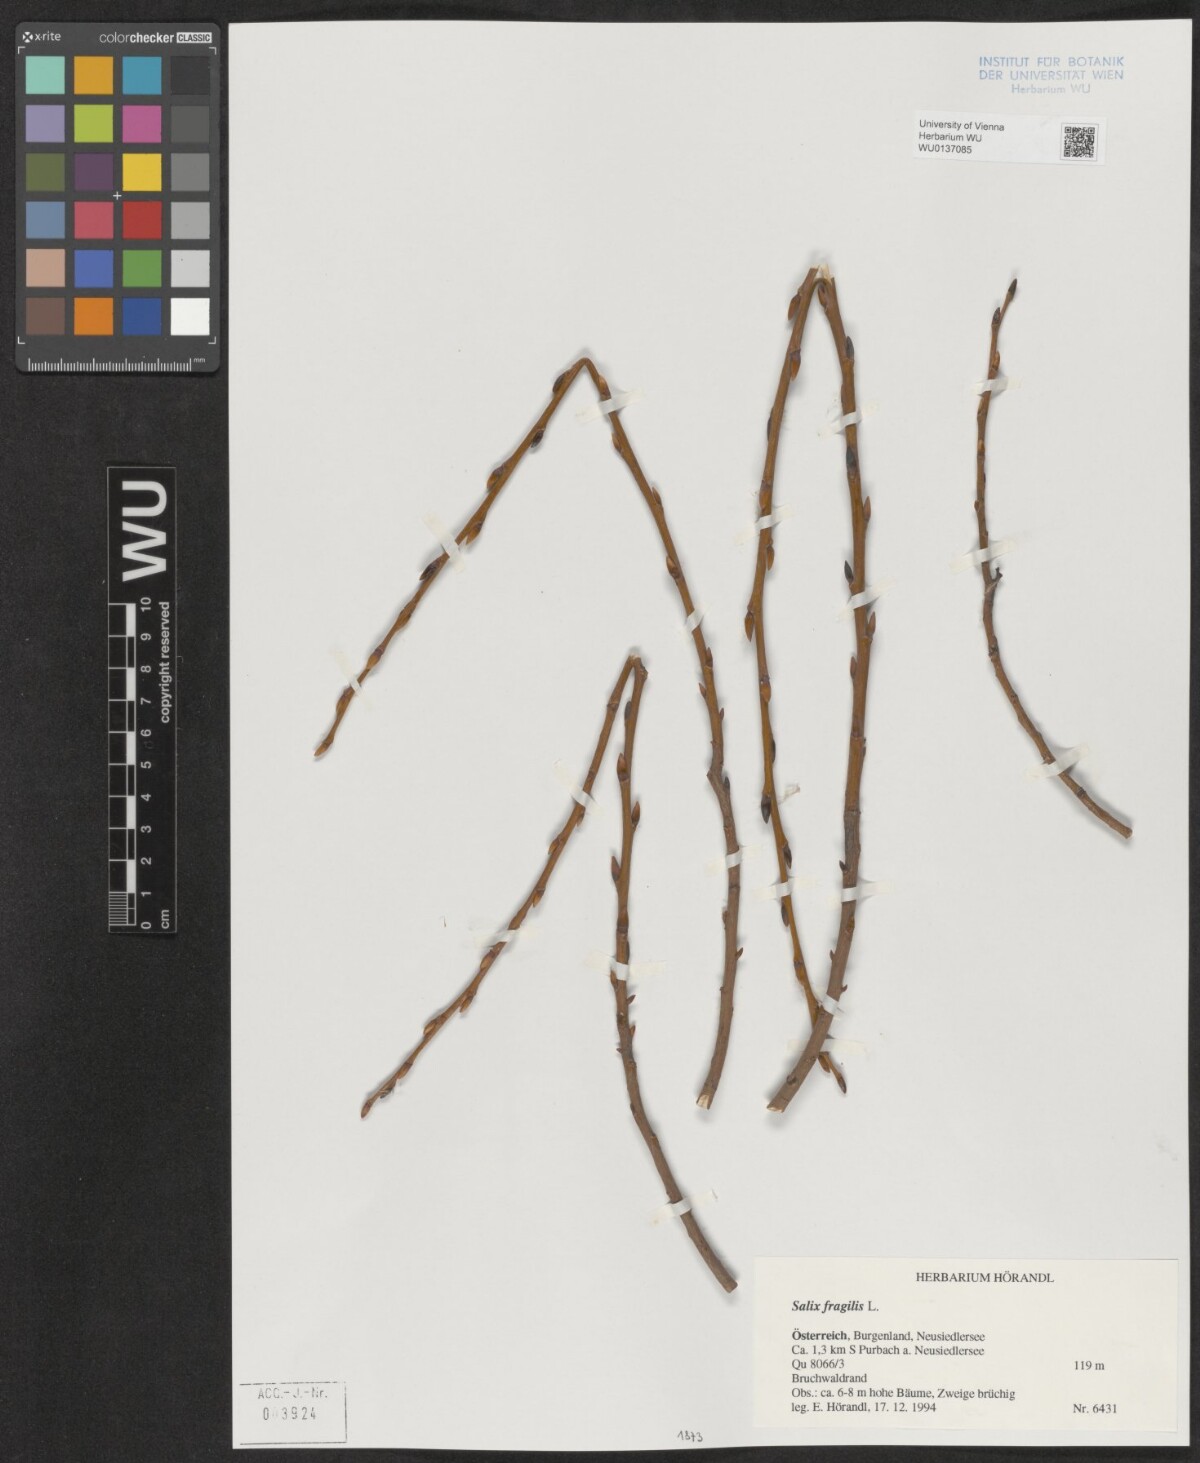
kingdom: Plantae
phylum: Tracheophyta
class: Magnoliopsida
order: Malpighiales
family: Salicaceae
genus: Salix
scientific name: Salix fragilis
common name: Crack willow
